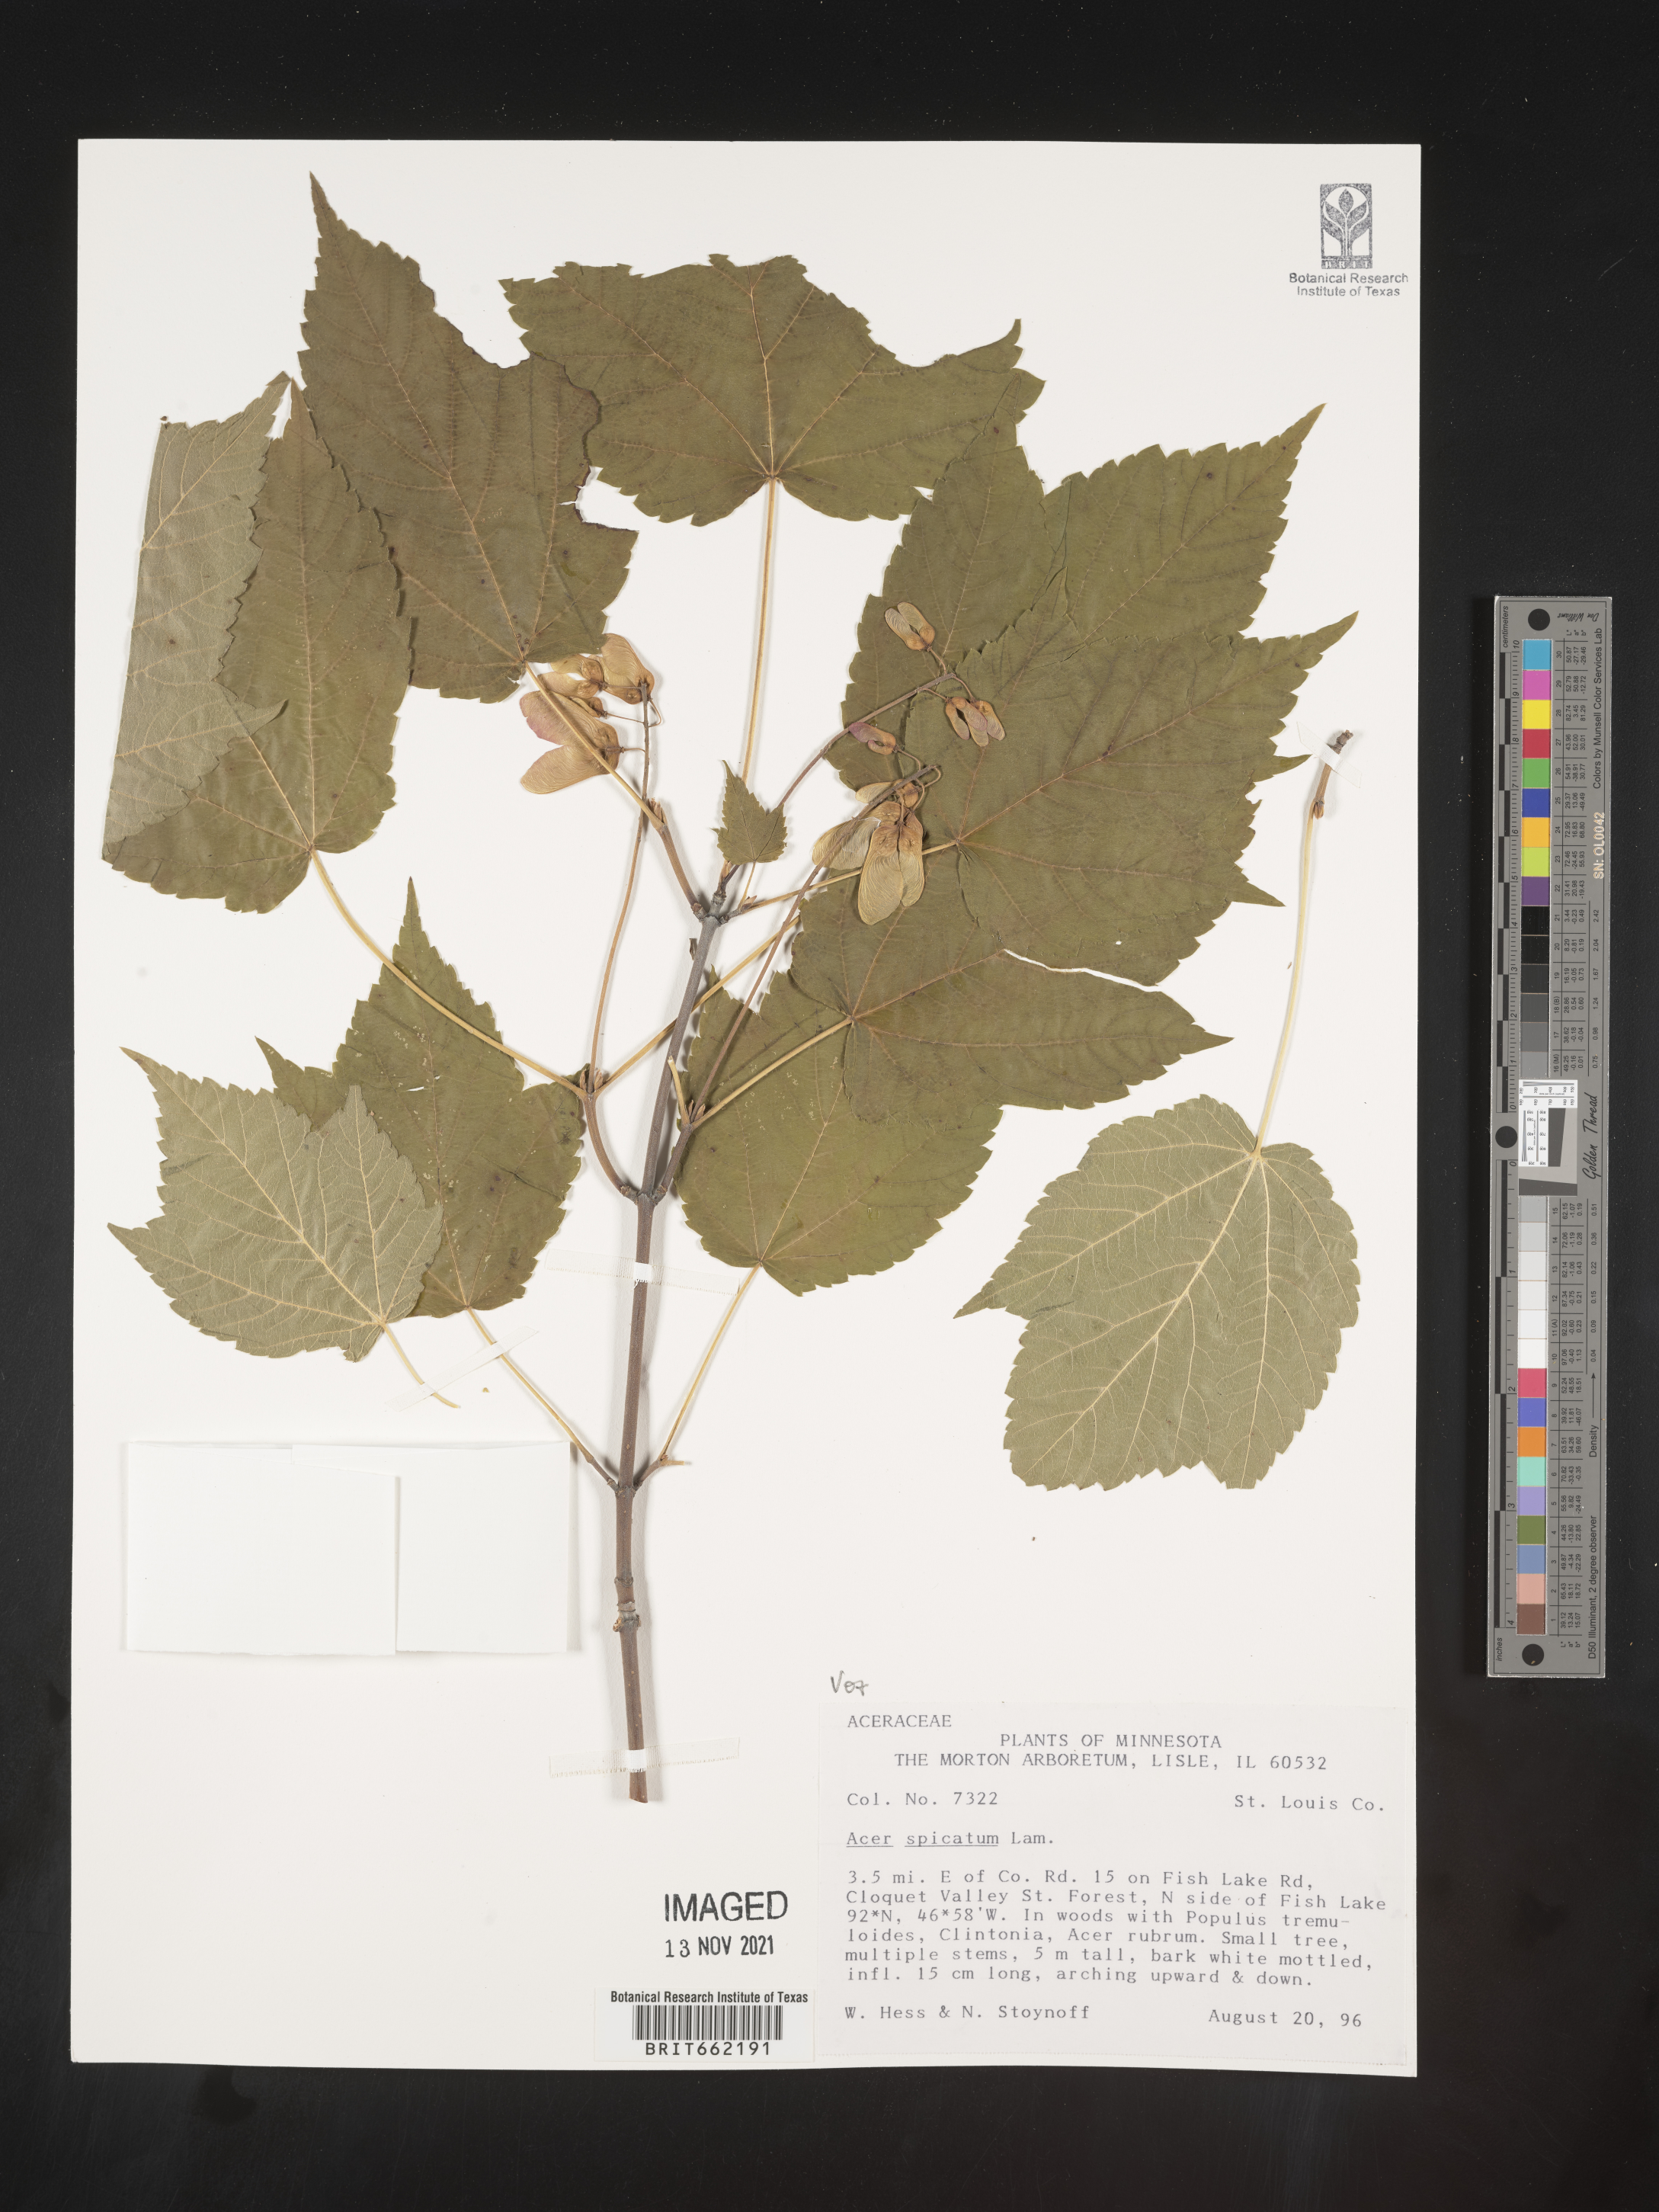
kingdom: Plantae
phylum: Tracheophyta
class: Magnoliopsida
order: Sapindales
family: Sapindaceae
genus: Acer
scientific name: Acer spicatum
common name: Mountain maple
